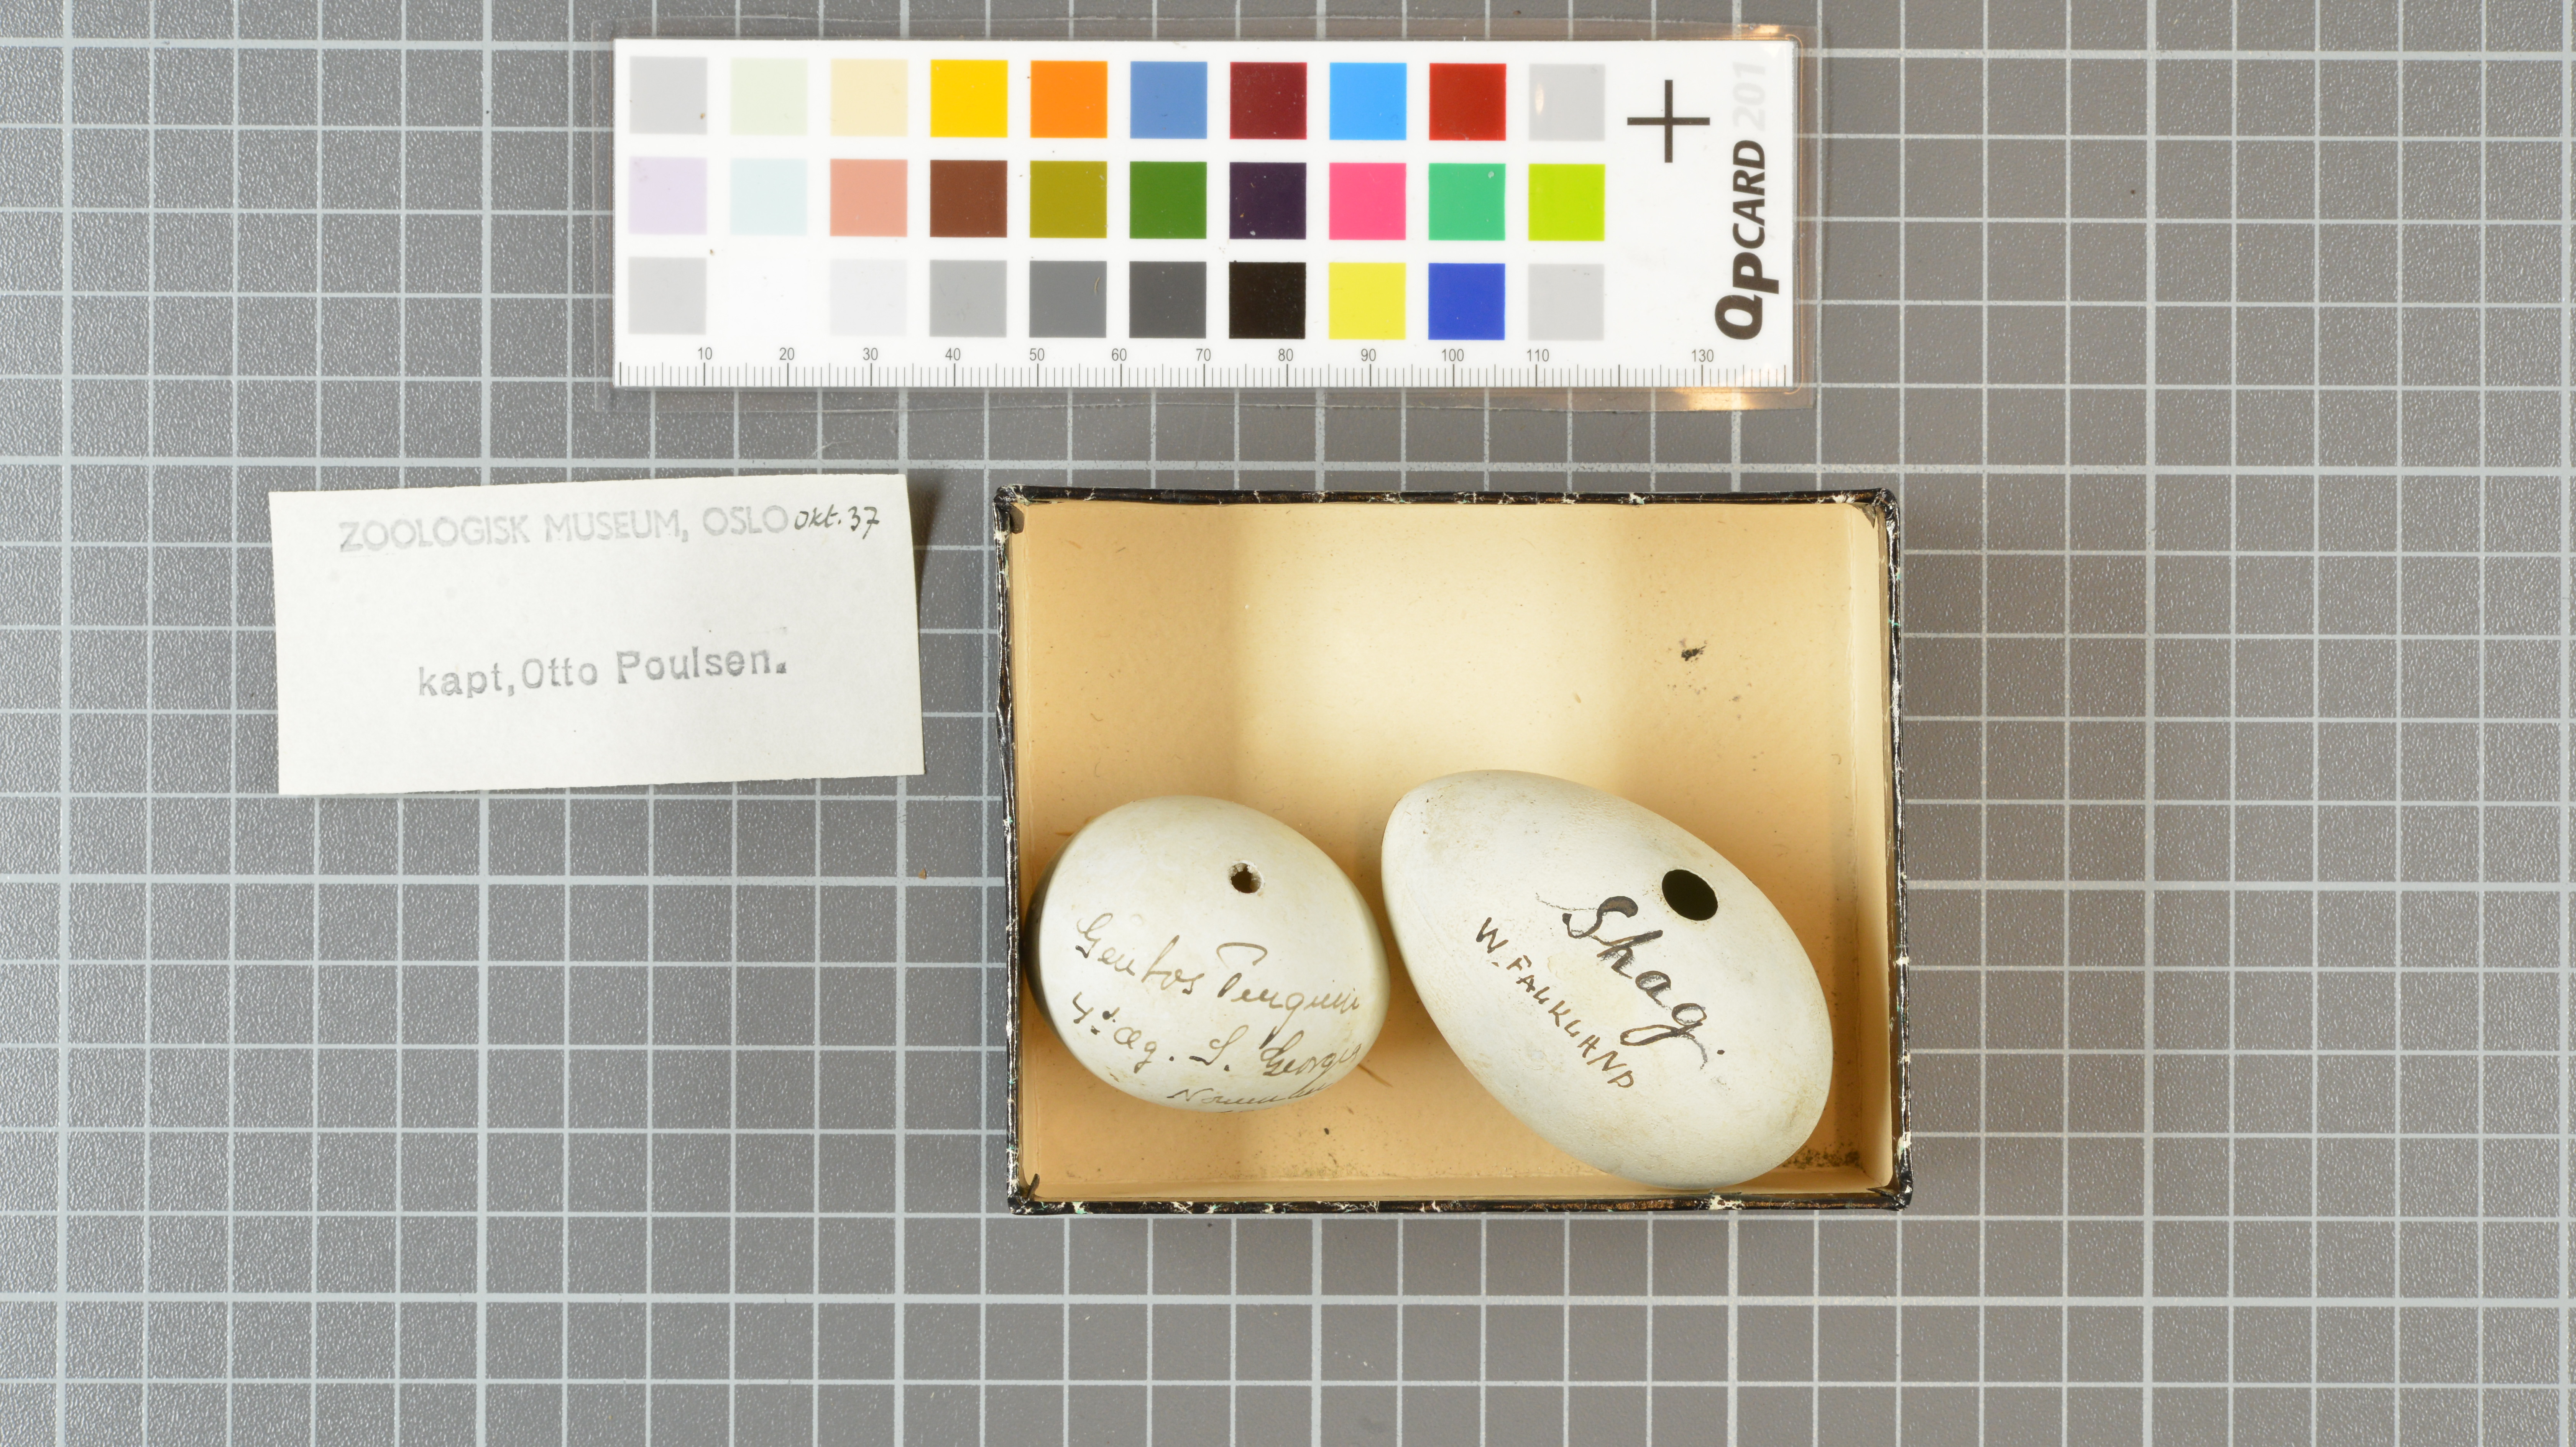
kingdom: Animalia
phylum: Chordata
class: Aves
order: Sphenisciformes
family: Spheniscidae
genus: Pygoscelis
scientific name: Pygoscelis papua
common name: Gentoo penguin
